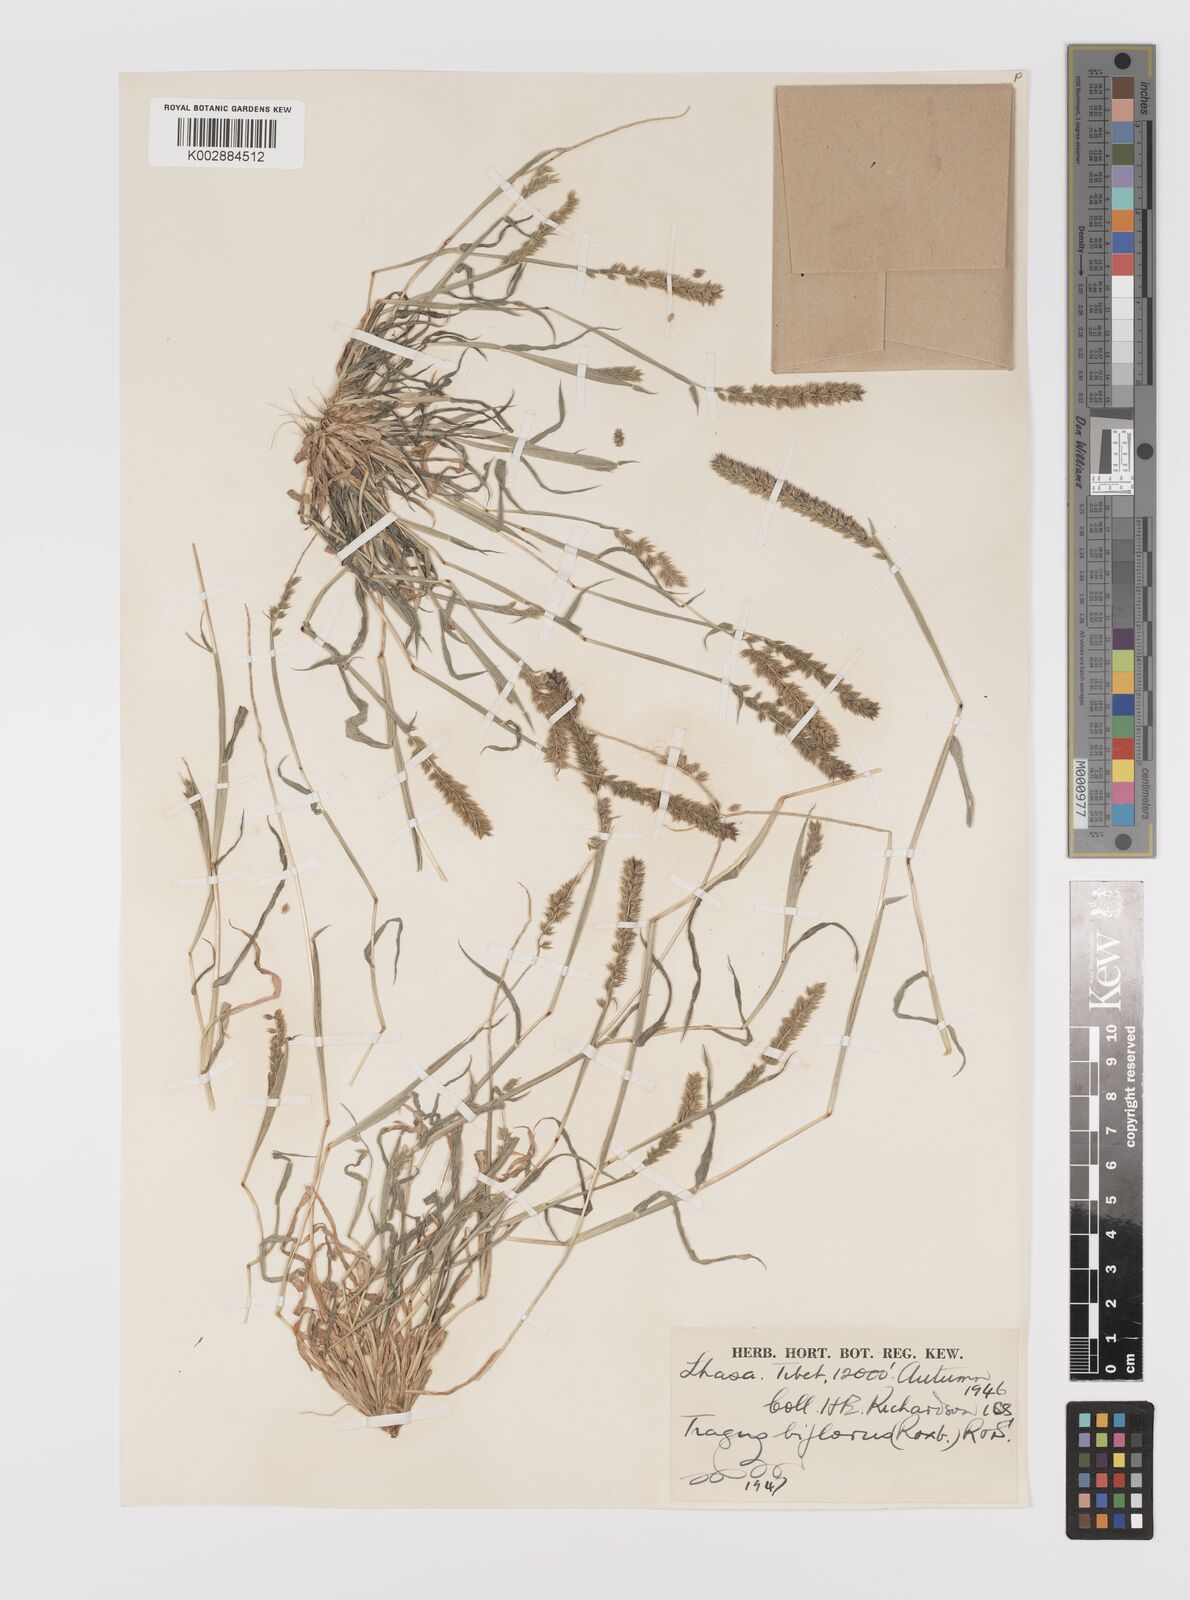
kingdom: Plantae
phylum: Tracheophyta
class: Liliopsida
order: Poales
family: Poaceae
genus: Tragus
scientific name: Tragus berteronianus
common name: African bur-grass
